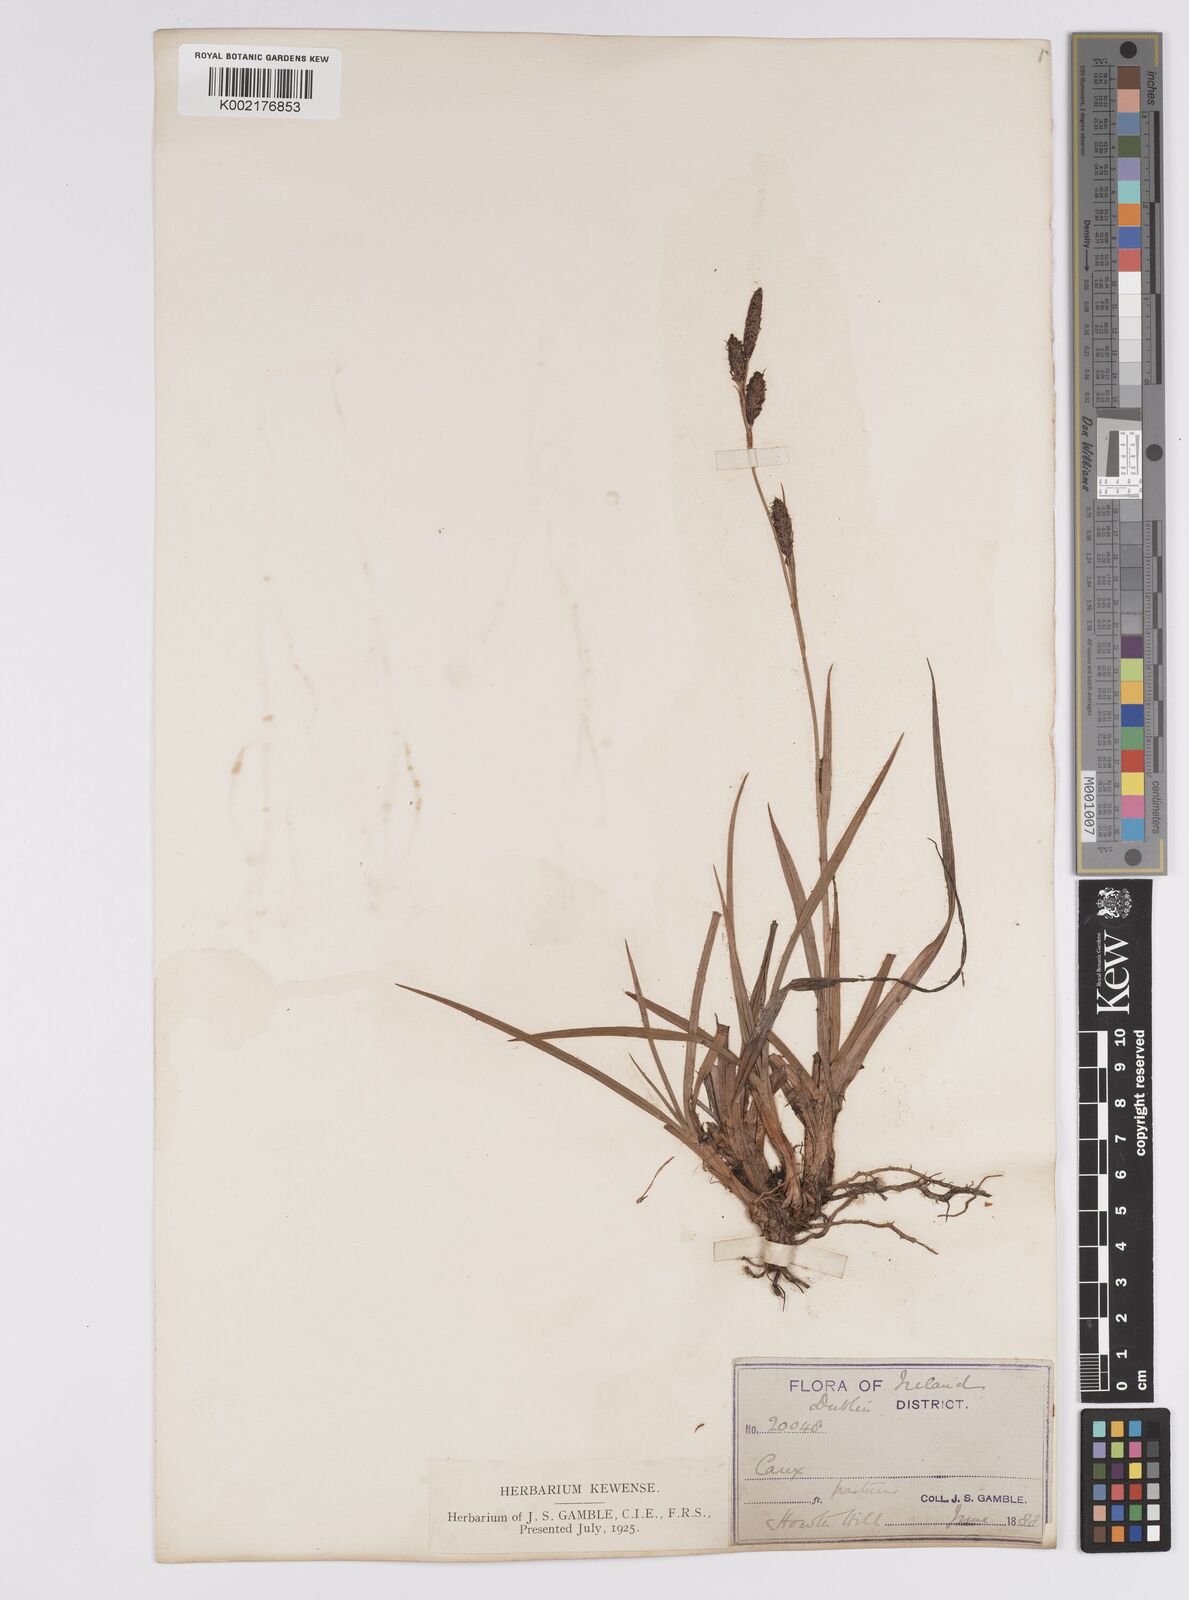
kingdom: Plantae
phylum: Tracheophyta
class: Liliopsida
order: Poales
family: Cyperaceae
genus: Carex
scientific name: Carex binervis
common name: Green-ribbed sedge
